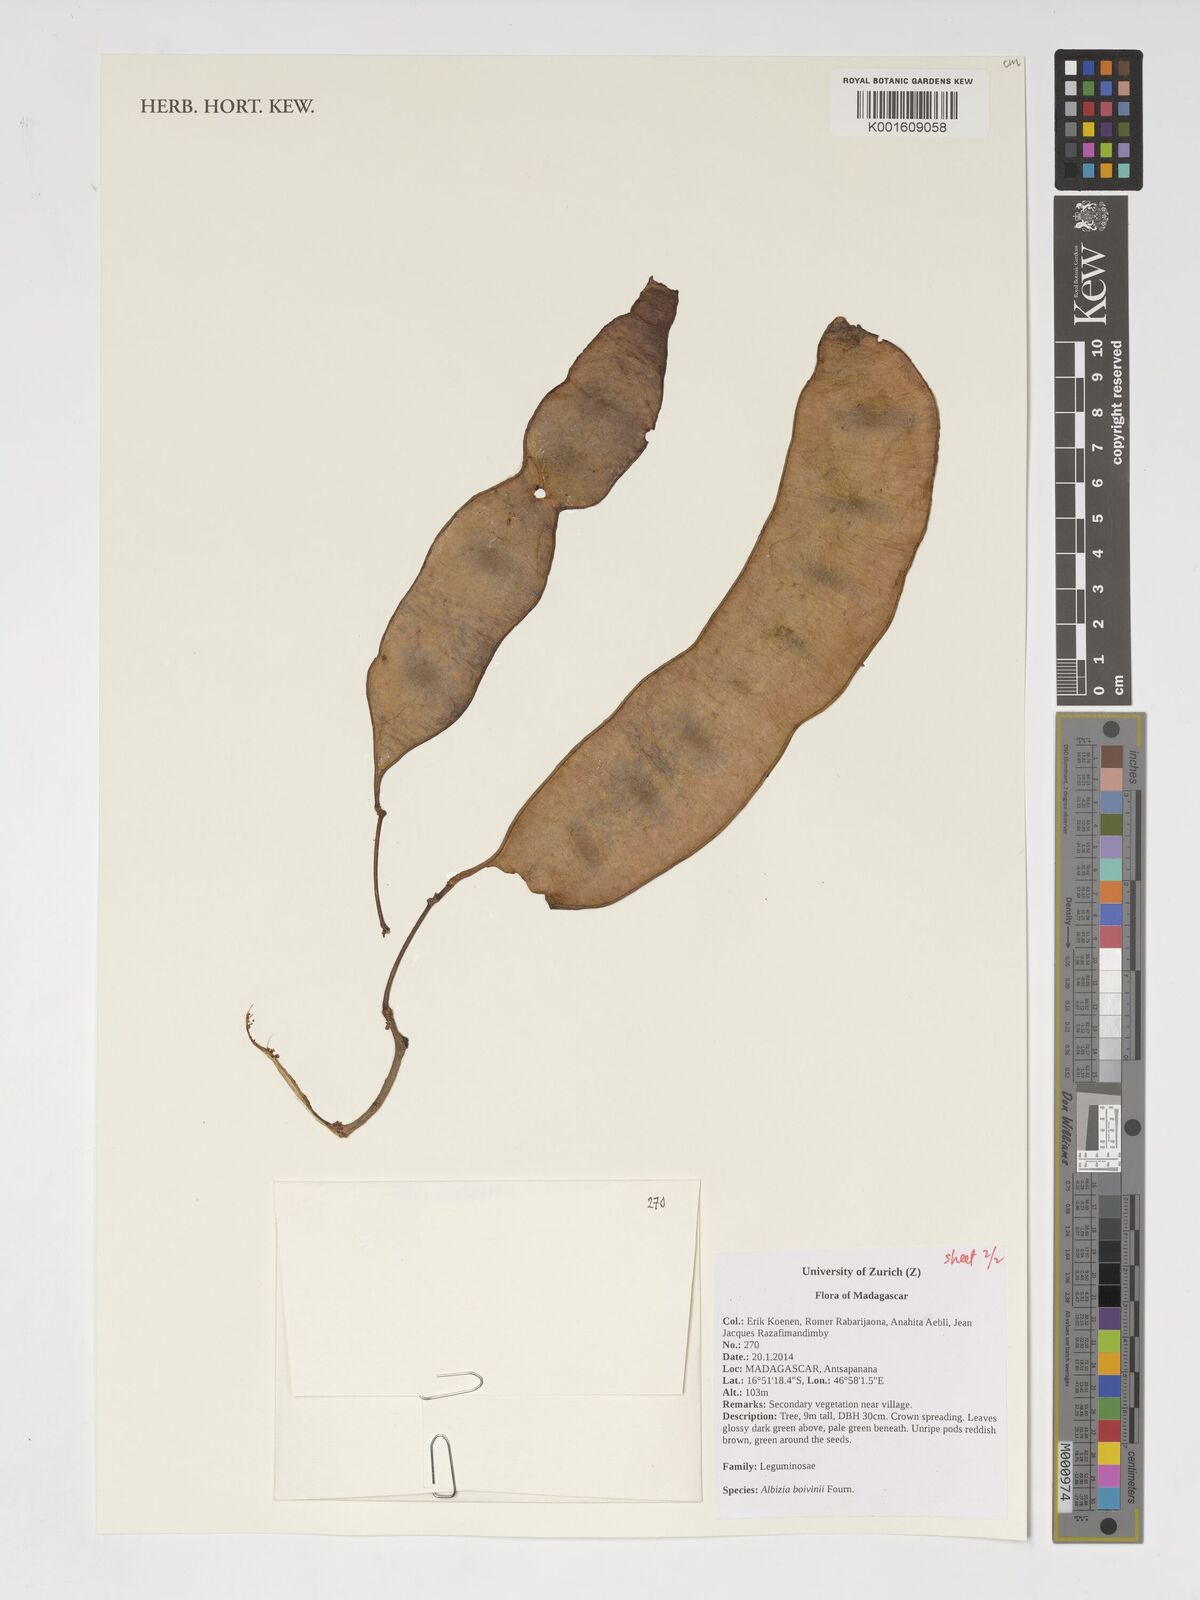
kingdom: Plantae
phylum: Tracheophyta
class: Magnoliopsida
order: Fabales
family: Fabaceae
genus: Albizia
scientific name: Albizia boivinii
